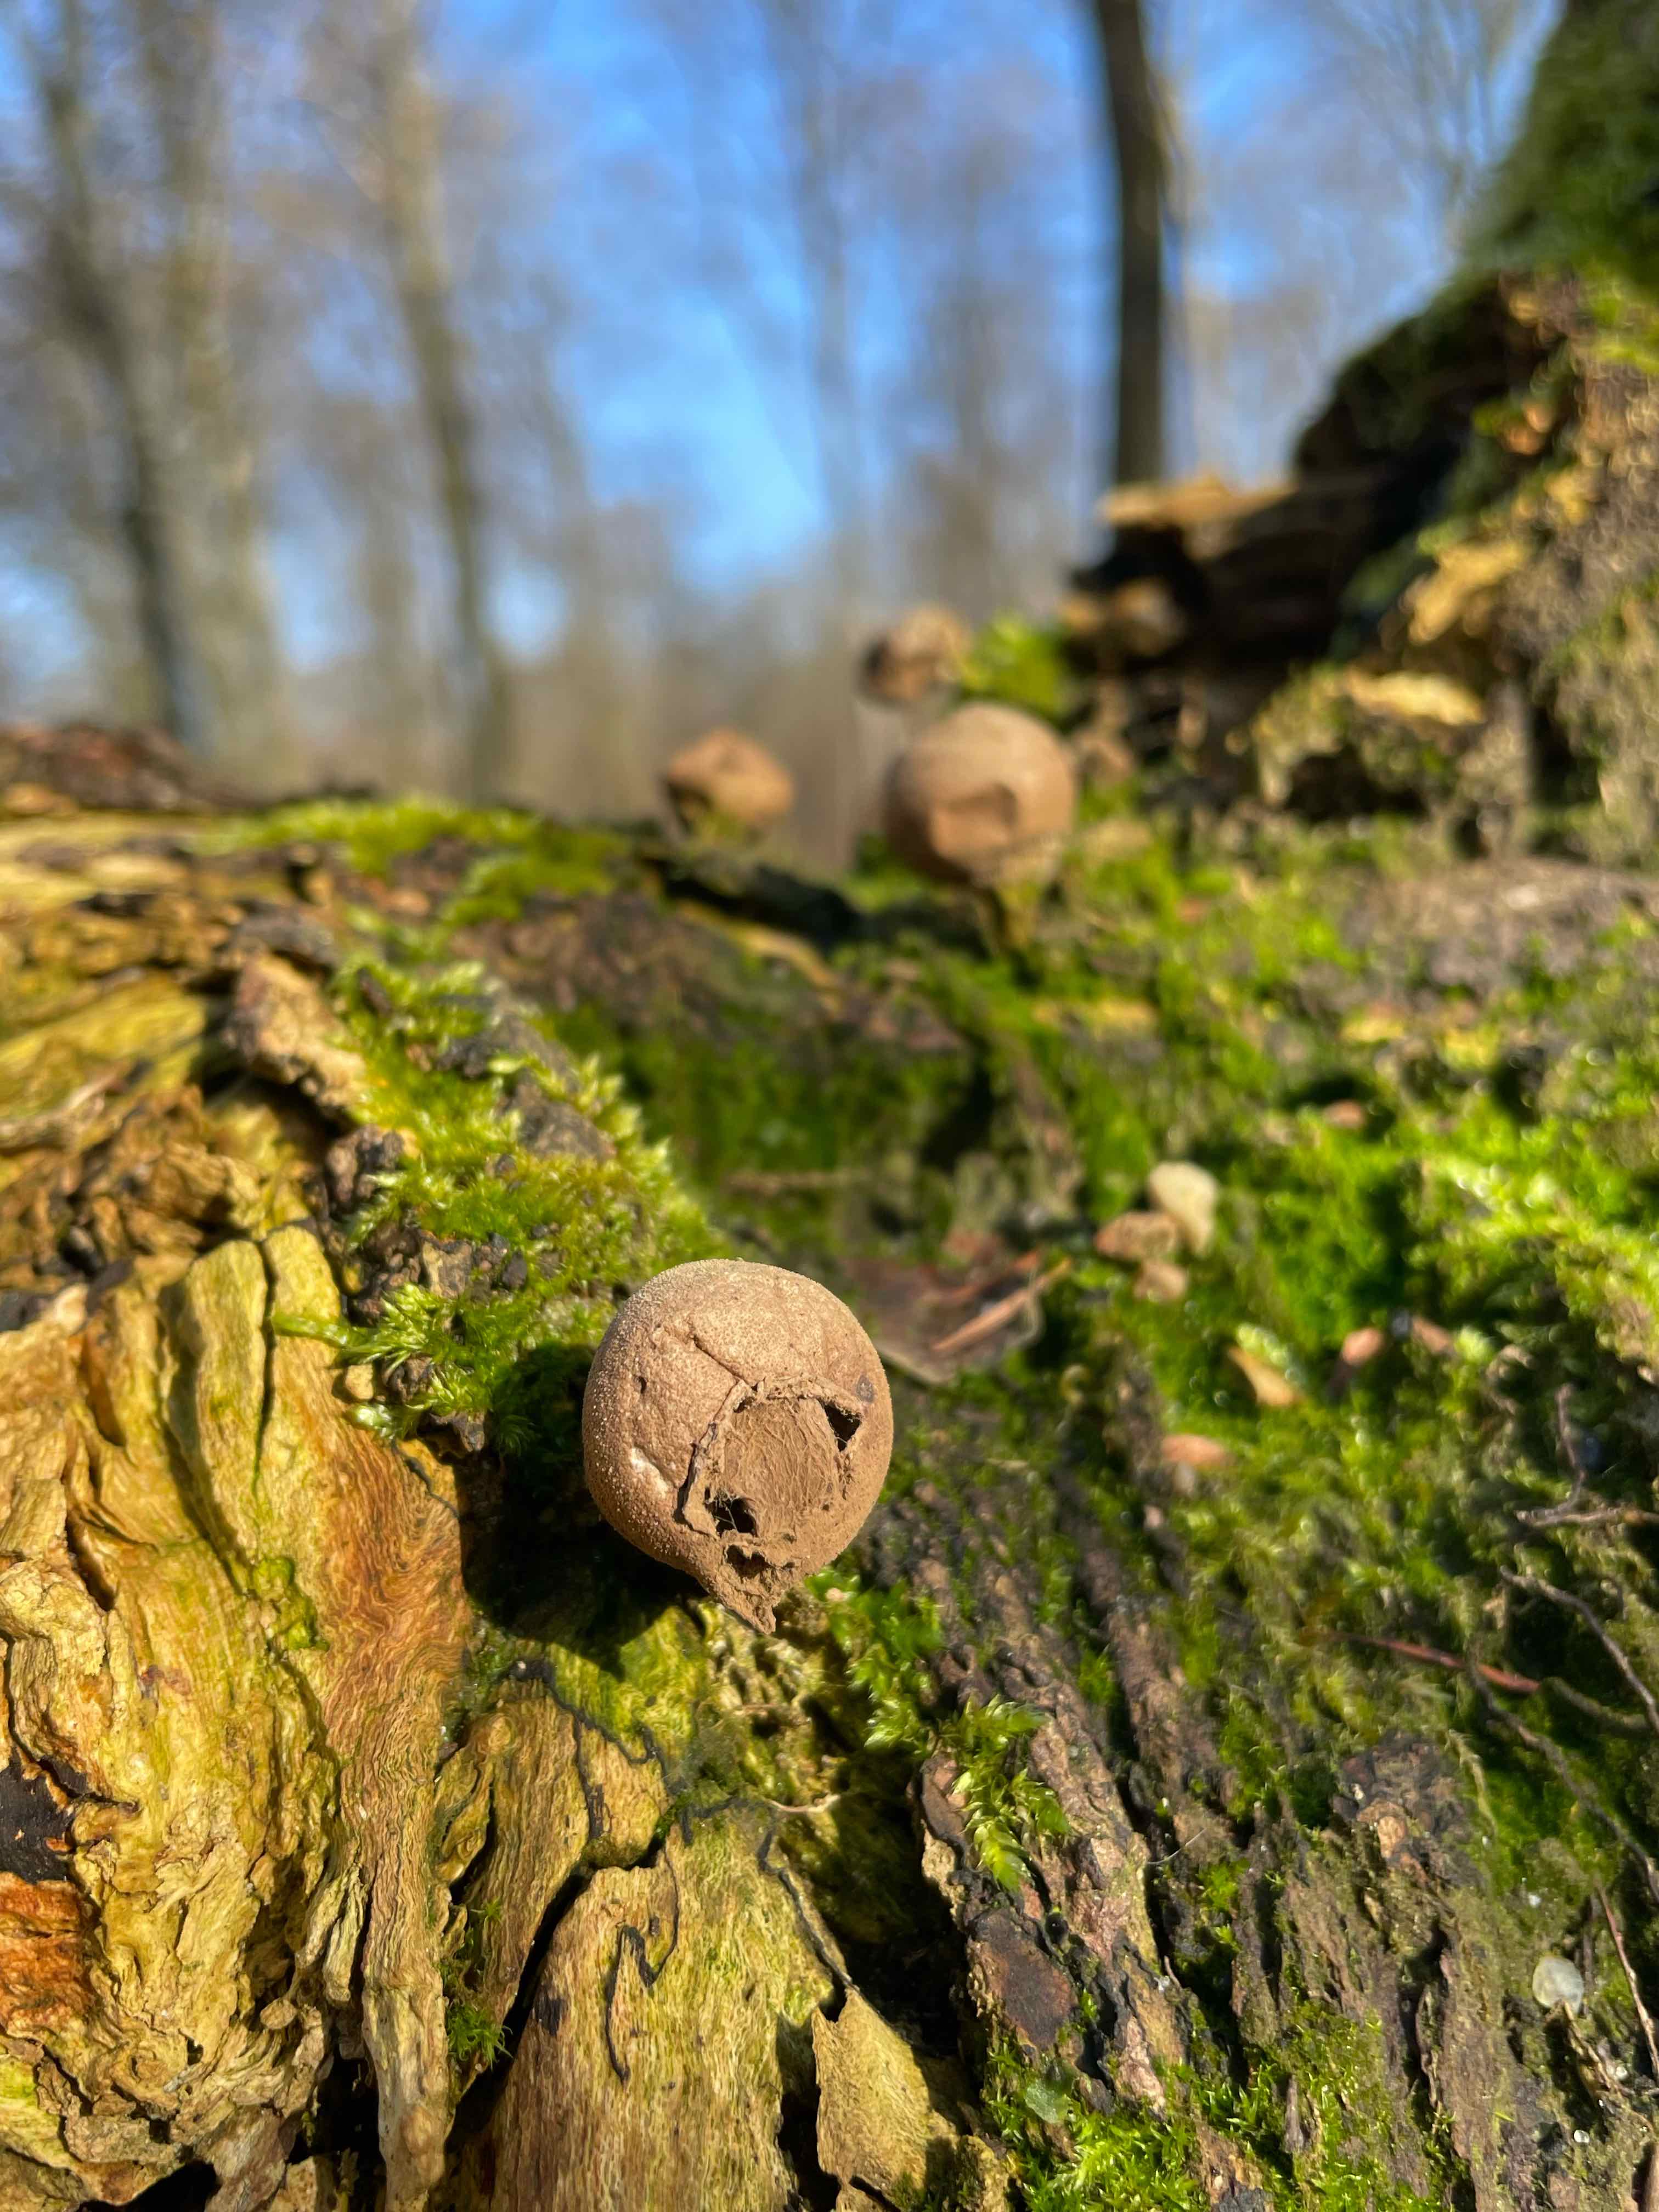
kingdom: Fungi
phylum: Basidiomycota
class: Agaricomycetes
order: Agaricales
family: Lycoperdaceae
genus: Apioperdon
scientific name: Apioperdon pyriforme
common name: pære-støvbold
